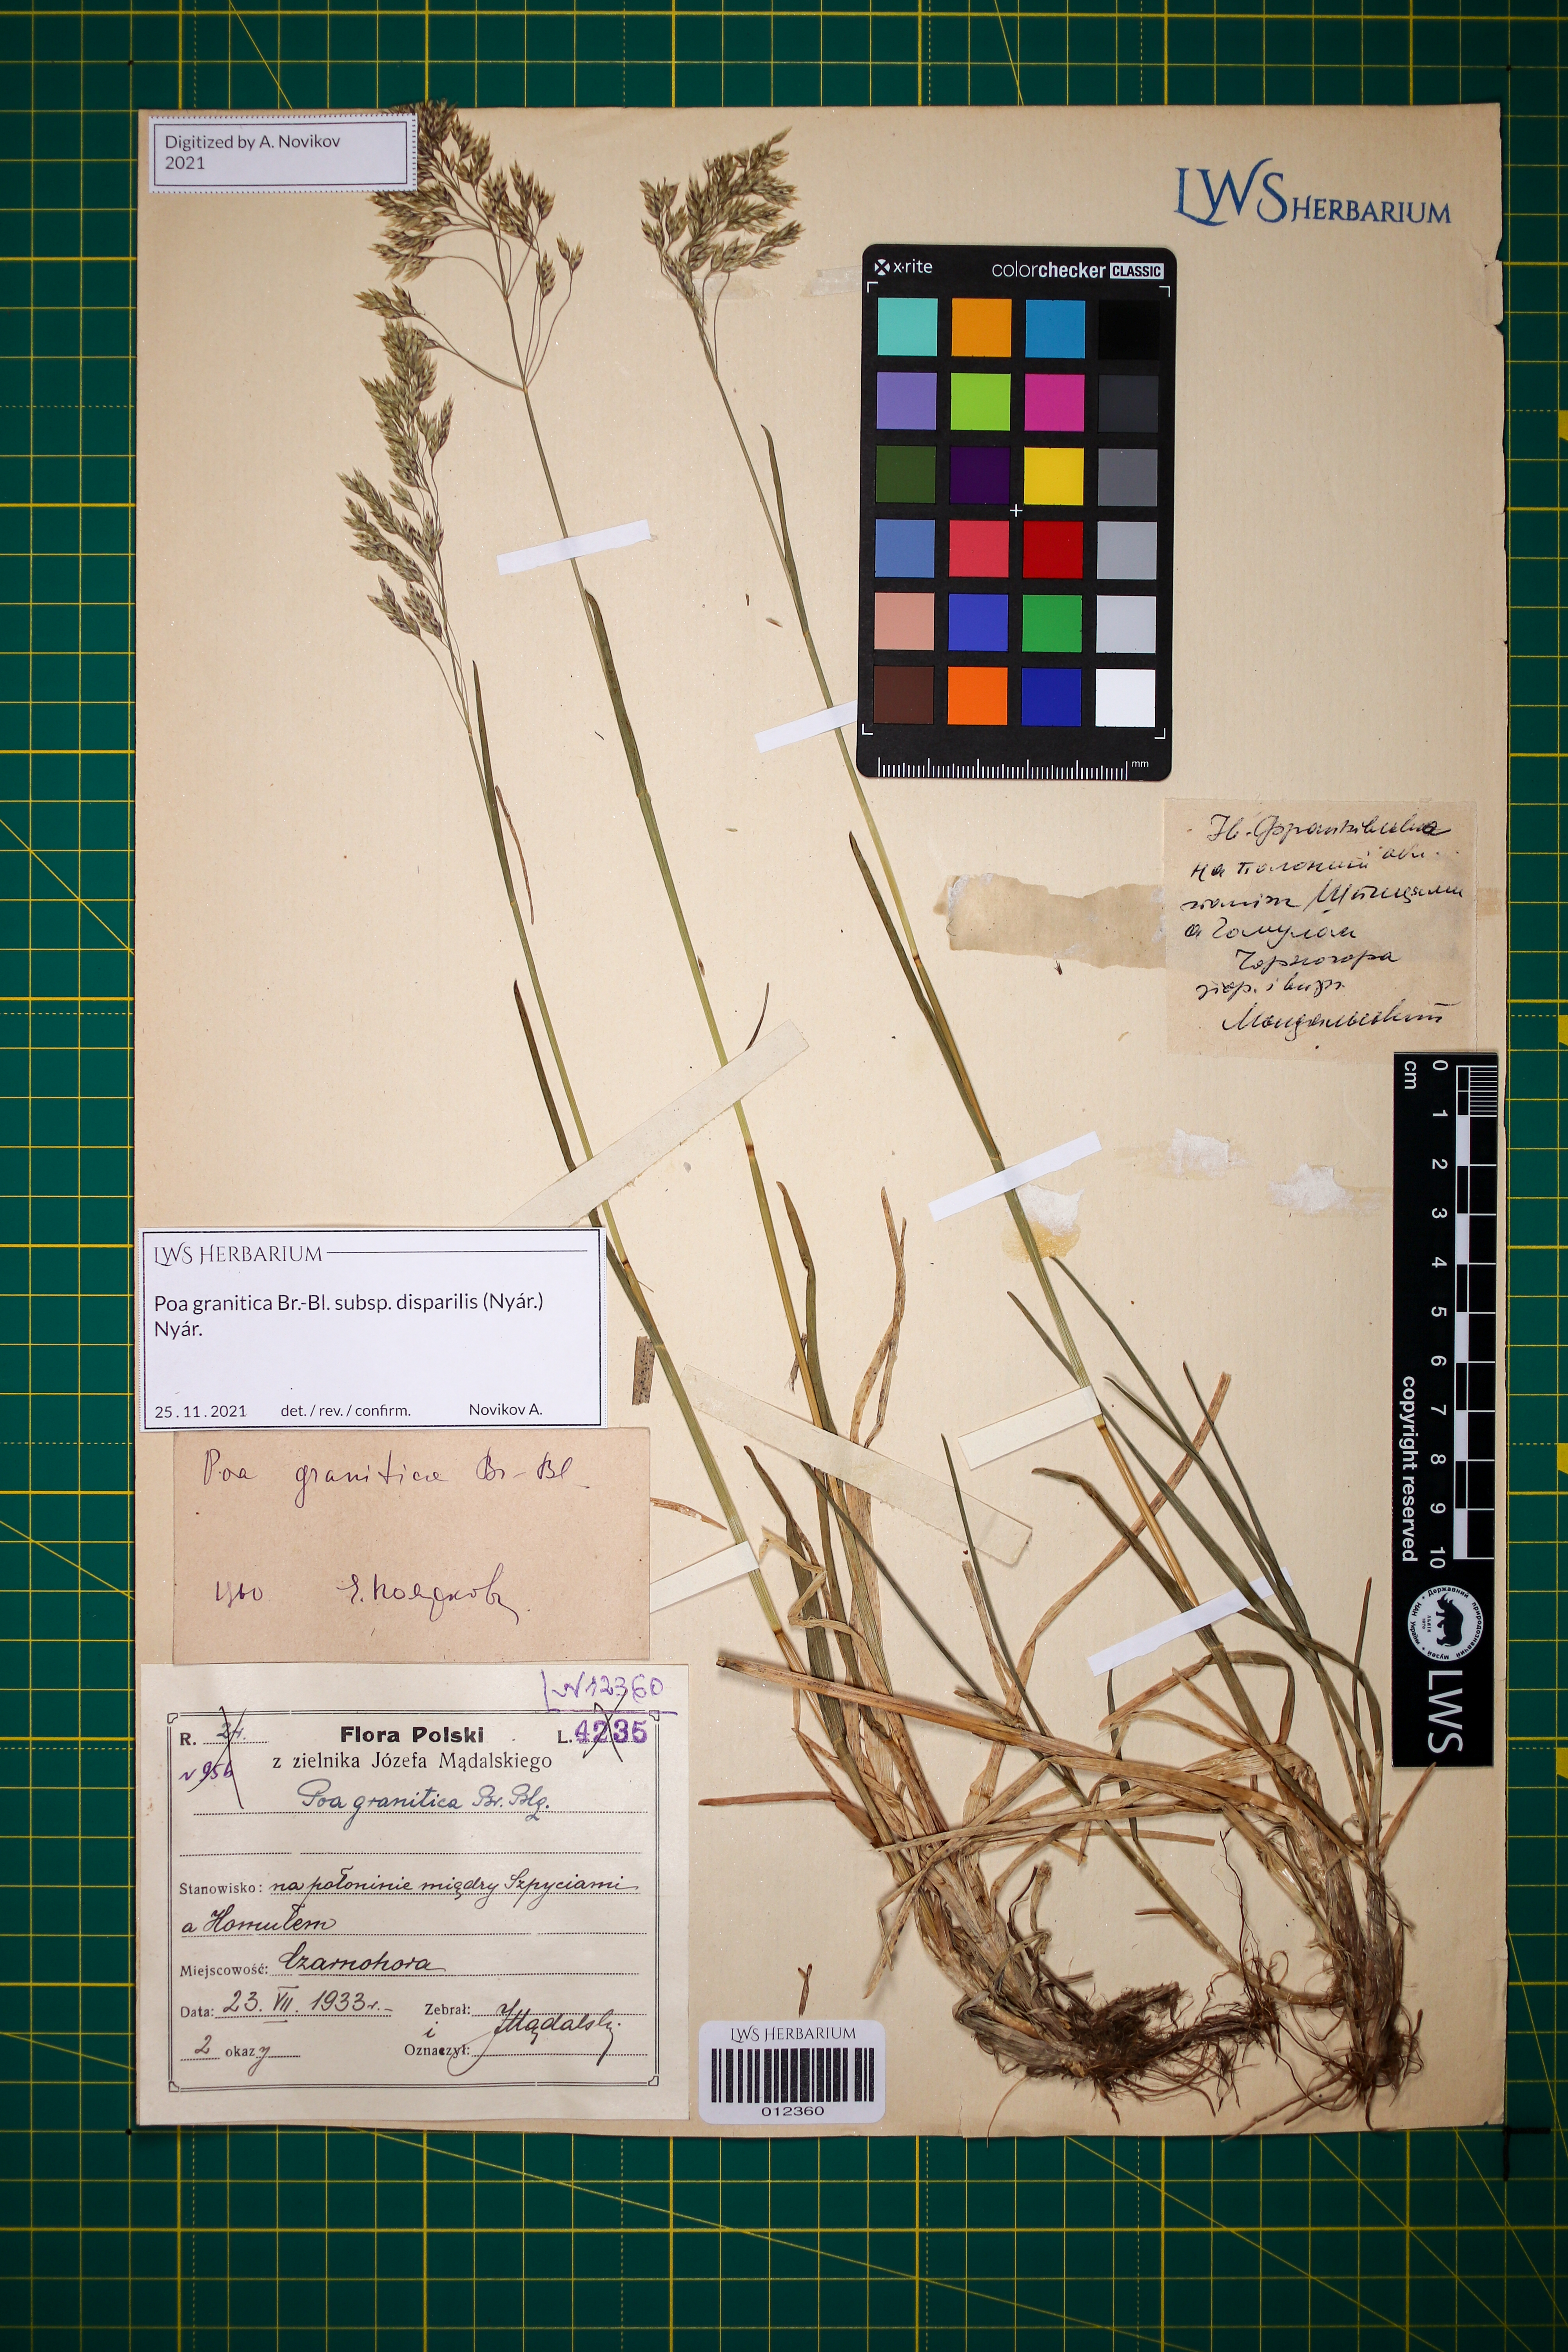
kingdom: Plantae
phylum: Tracheophyta
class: Liliopsida
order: Poales
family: Poaceae
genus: Poa
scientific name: Poa granitica
